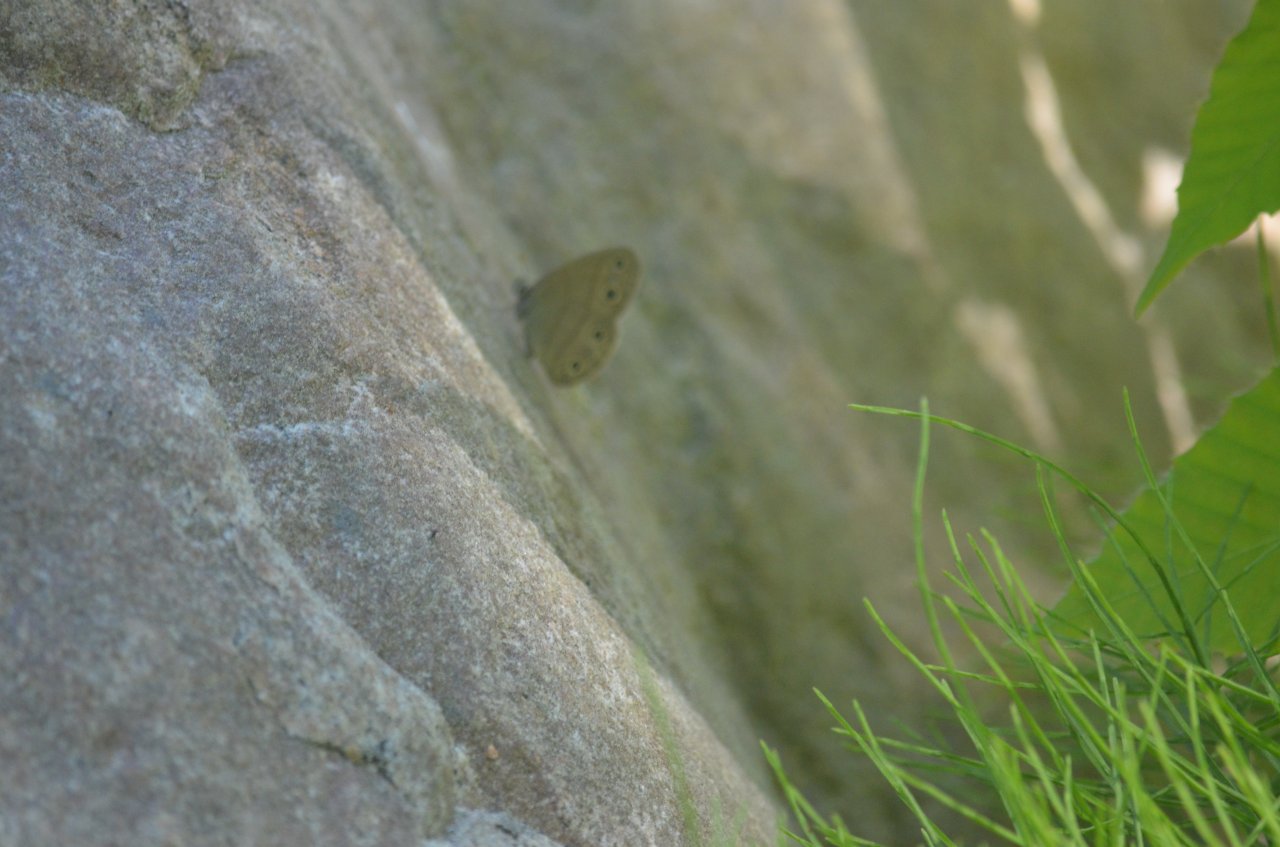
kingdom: Animalia
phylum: Arthropoda
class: Insecta
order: Lepidoptera
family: Nymphalidae
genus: Euptychia
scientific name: Euptychia cymela
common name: Little Wood Satyr
